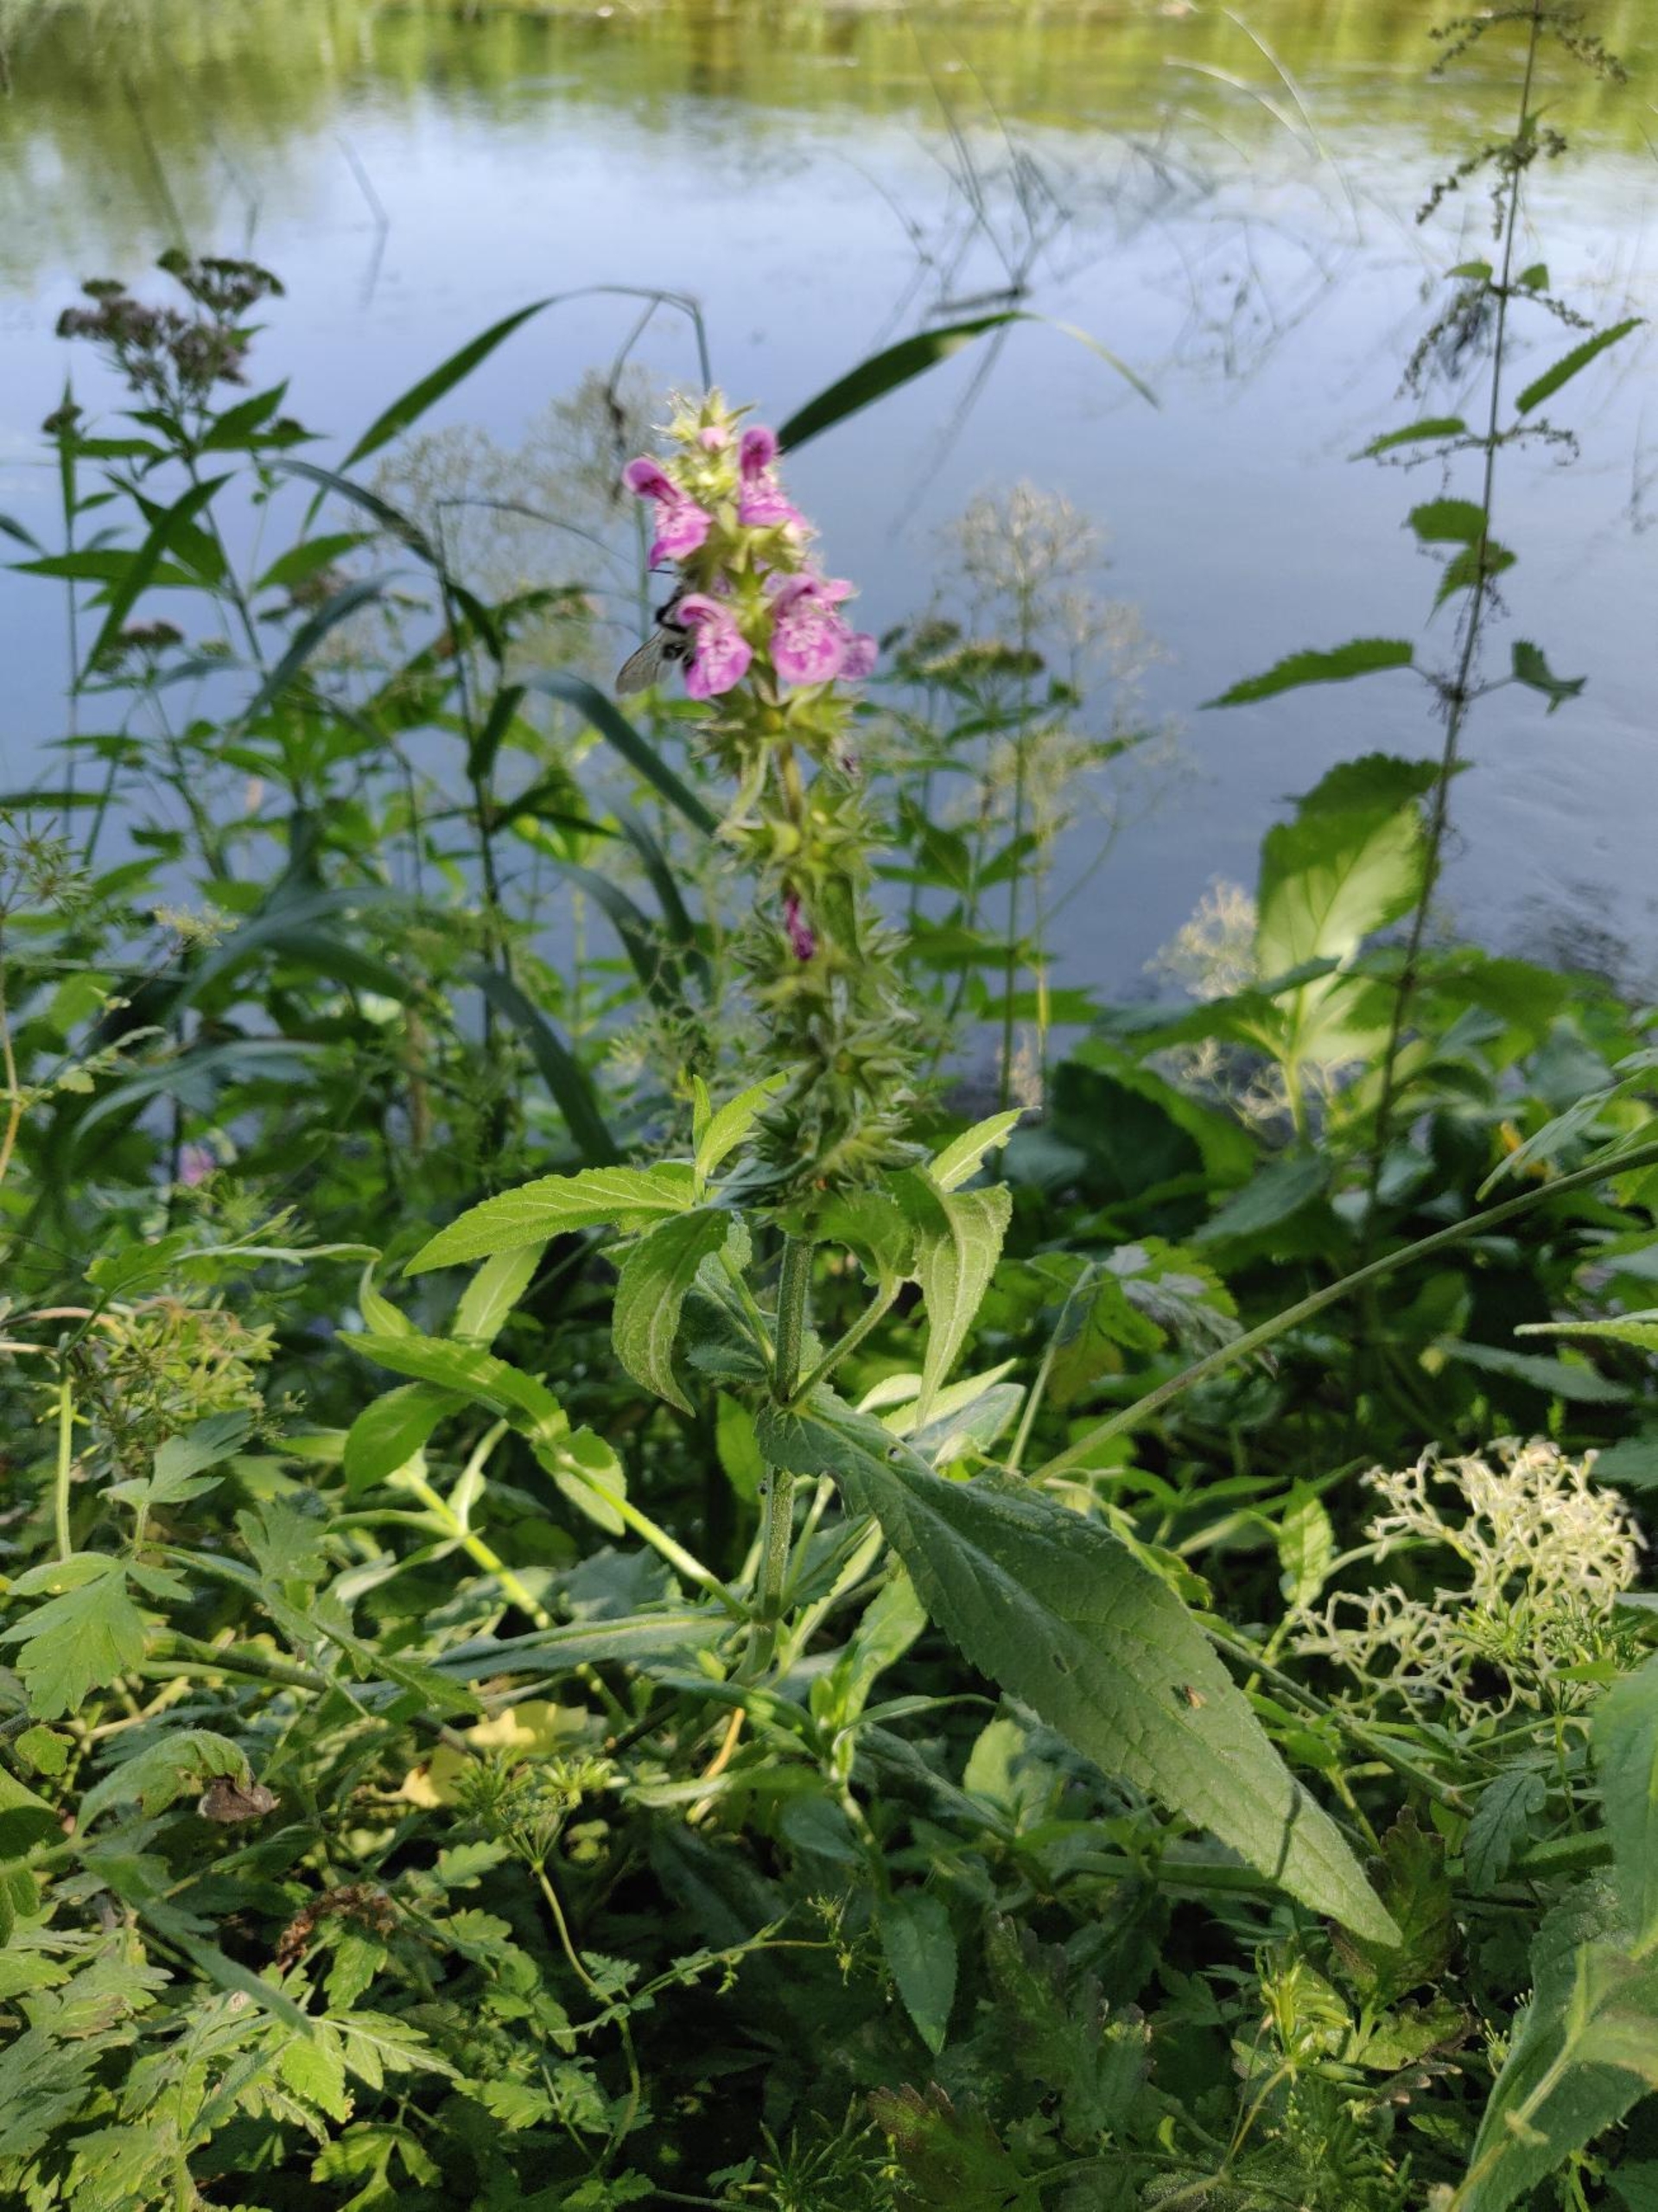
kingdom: Plantae
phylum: Tracheophyta
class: Magnoliopsida
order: Lamiales
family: Lamiaceae
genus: Stachys
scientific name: Stachys palustris
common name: Kær-galtetand
